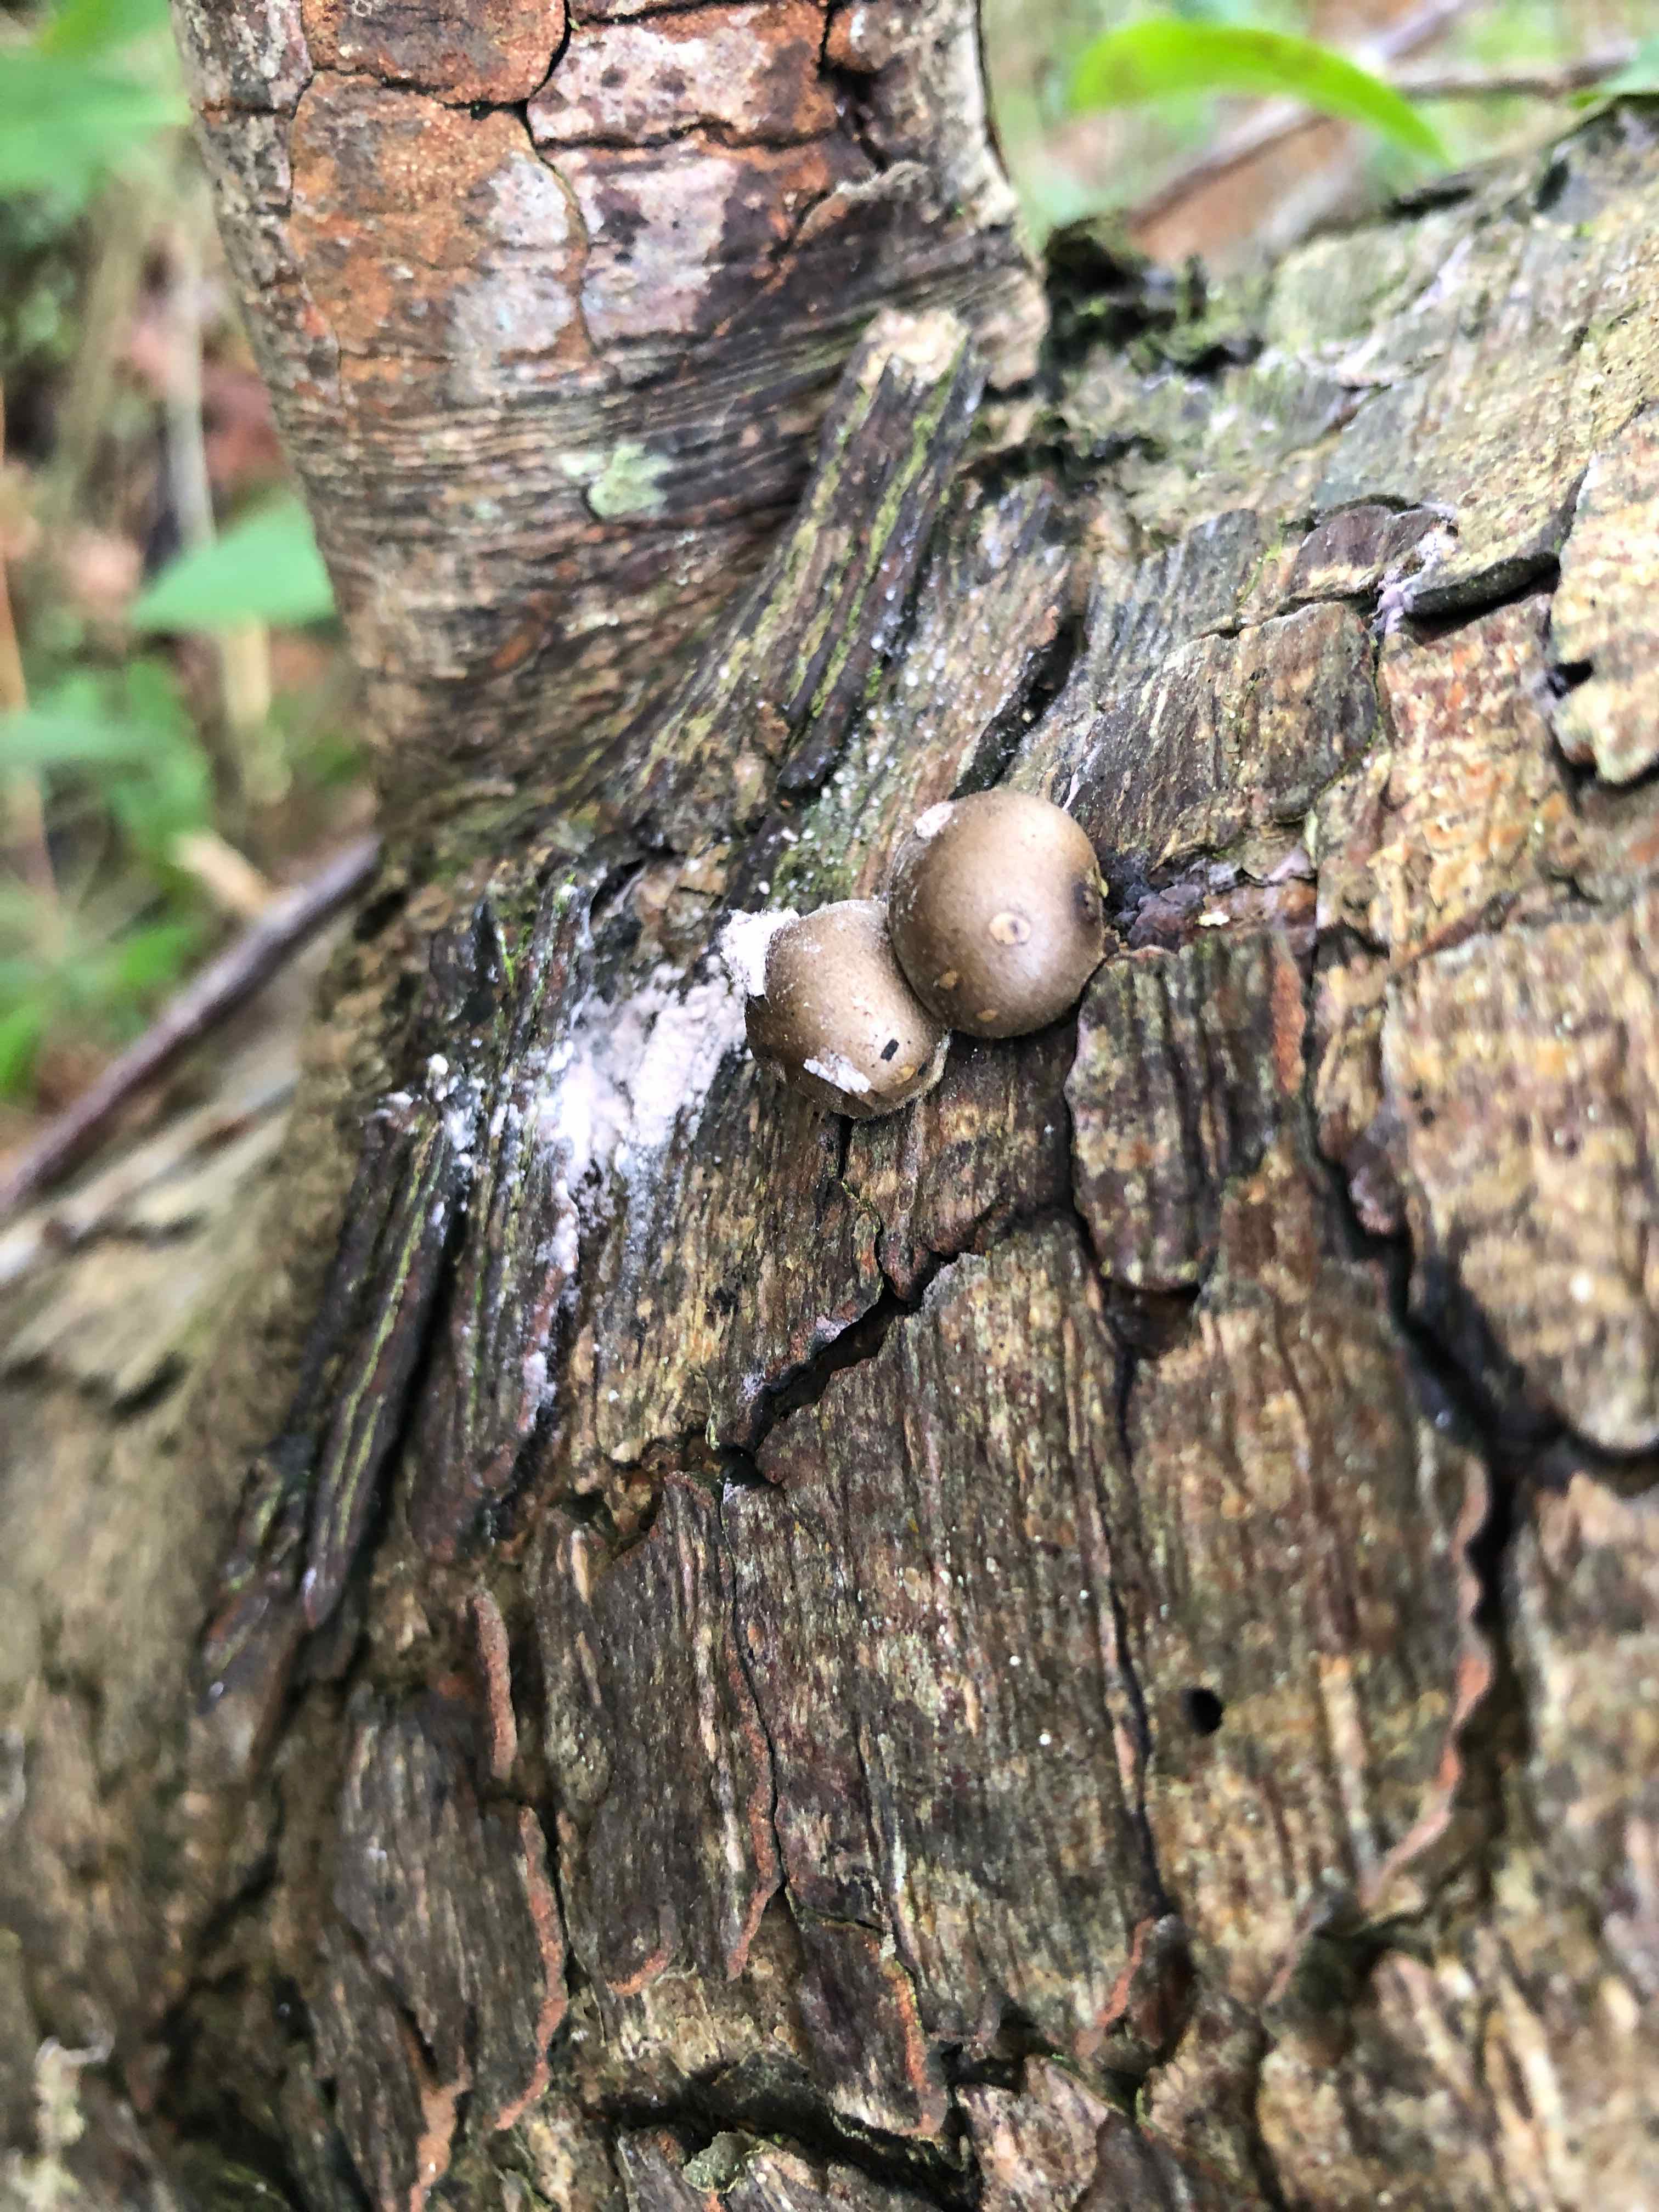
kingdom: Protozoa
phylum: Mycetozoa
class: Myxomycetes
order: Cribrariales
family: Tubiferaceae
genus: Lycogala
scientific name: Lycogala epidendrum
